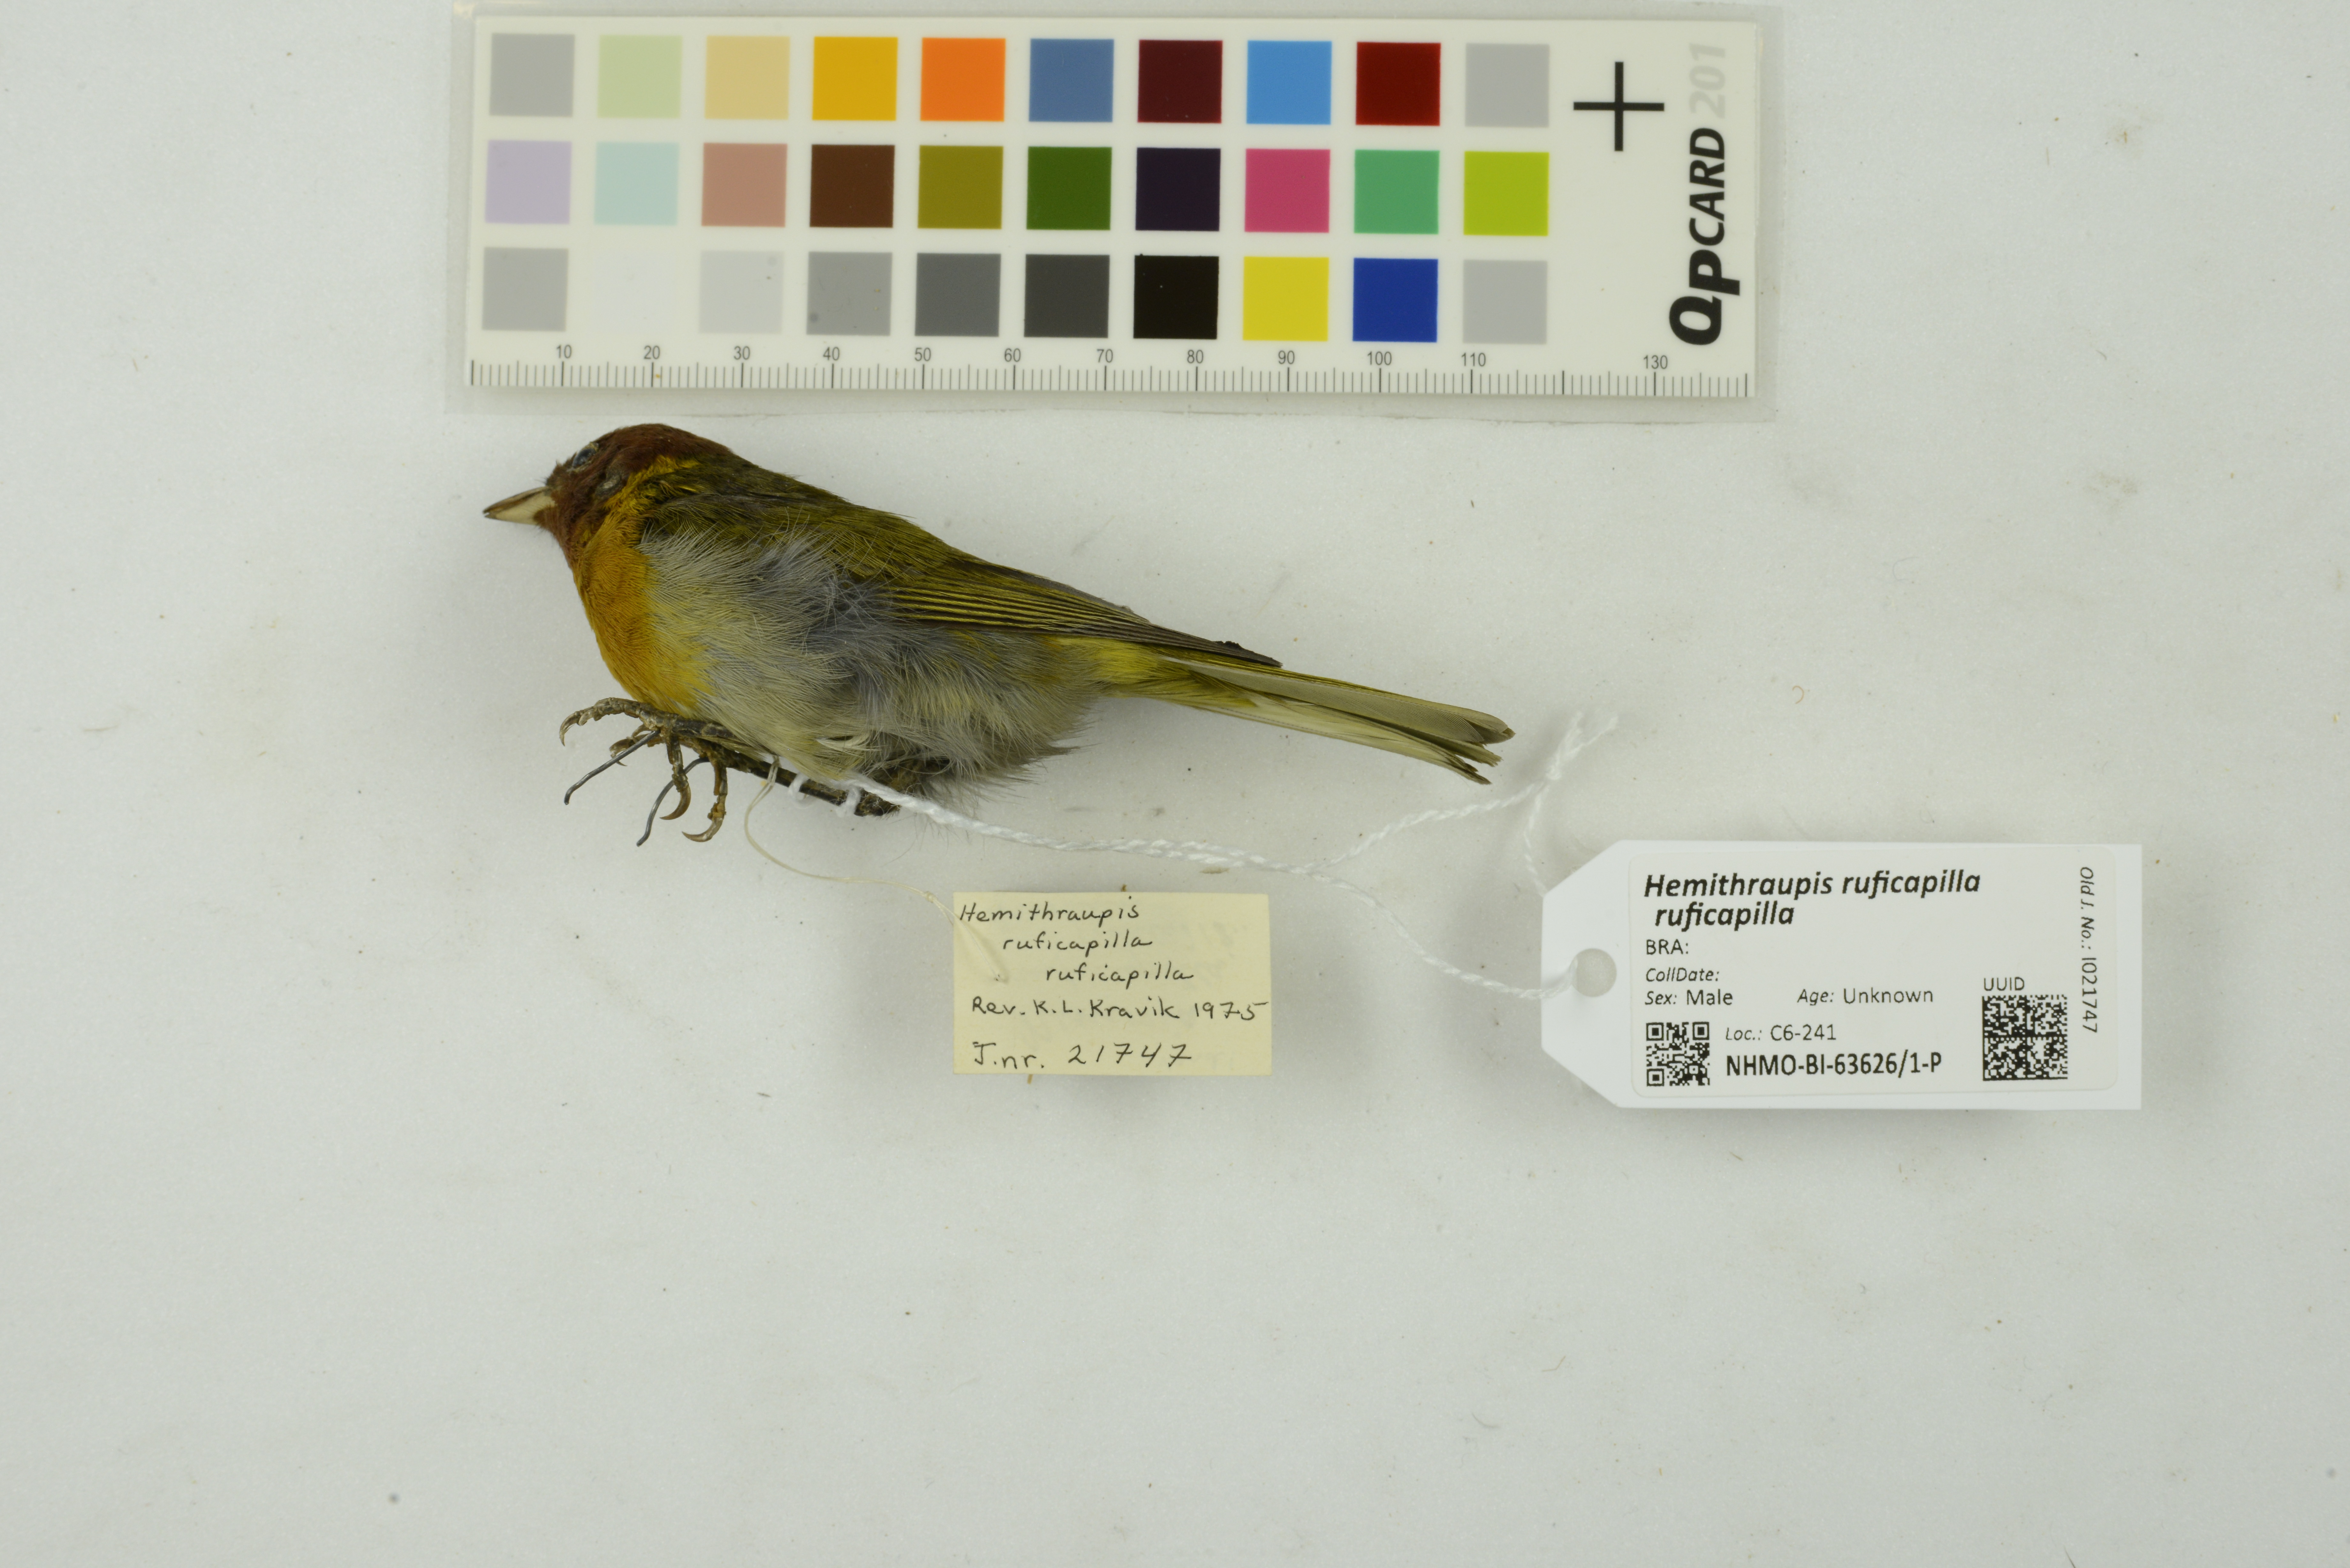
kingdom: Animalia
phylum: Chordata
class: Aves
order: Passeriformes
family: Thraupidae
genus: Hemithraupis
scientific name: Hemithraupis ruficapilla
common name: Rufous-headed tanager
